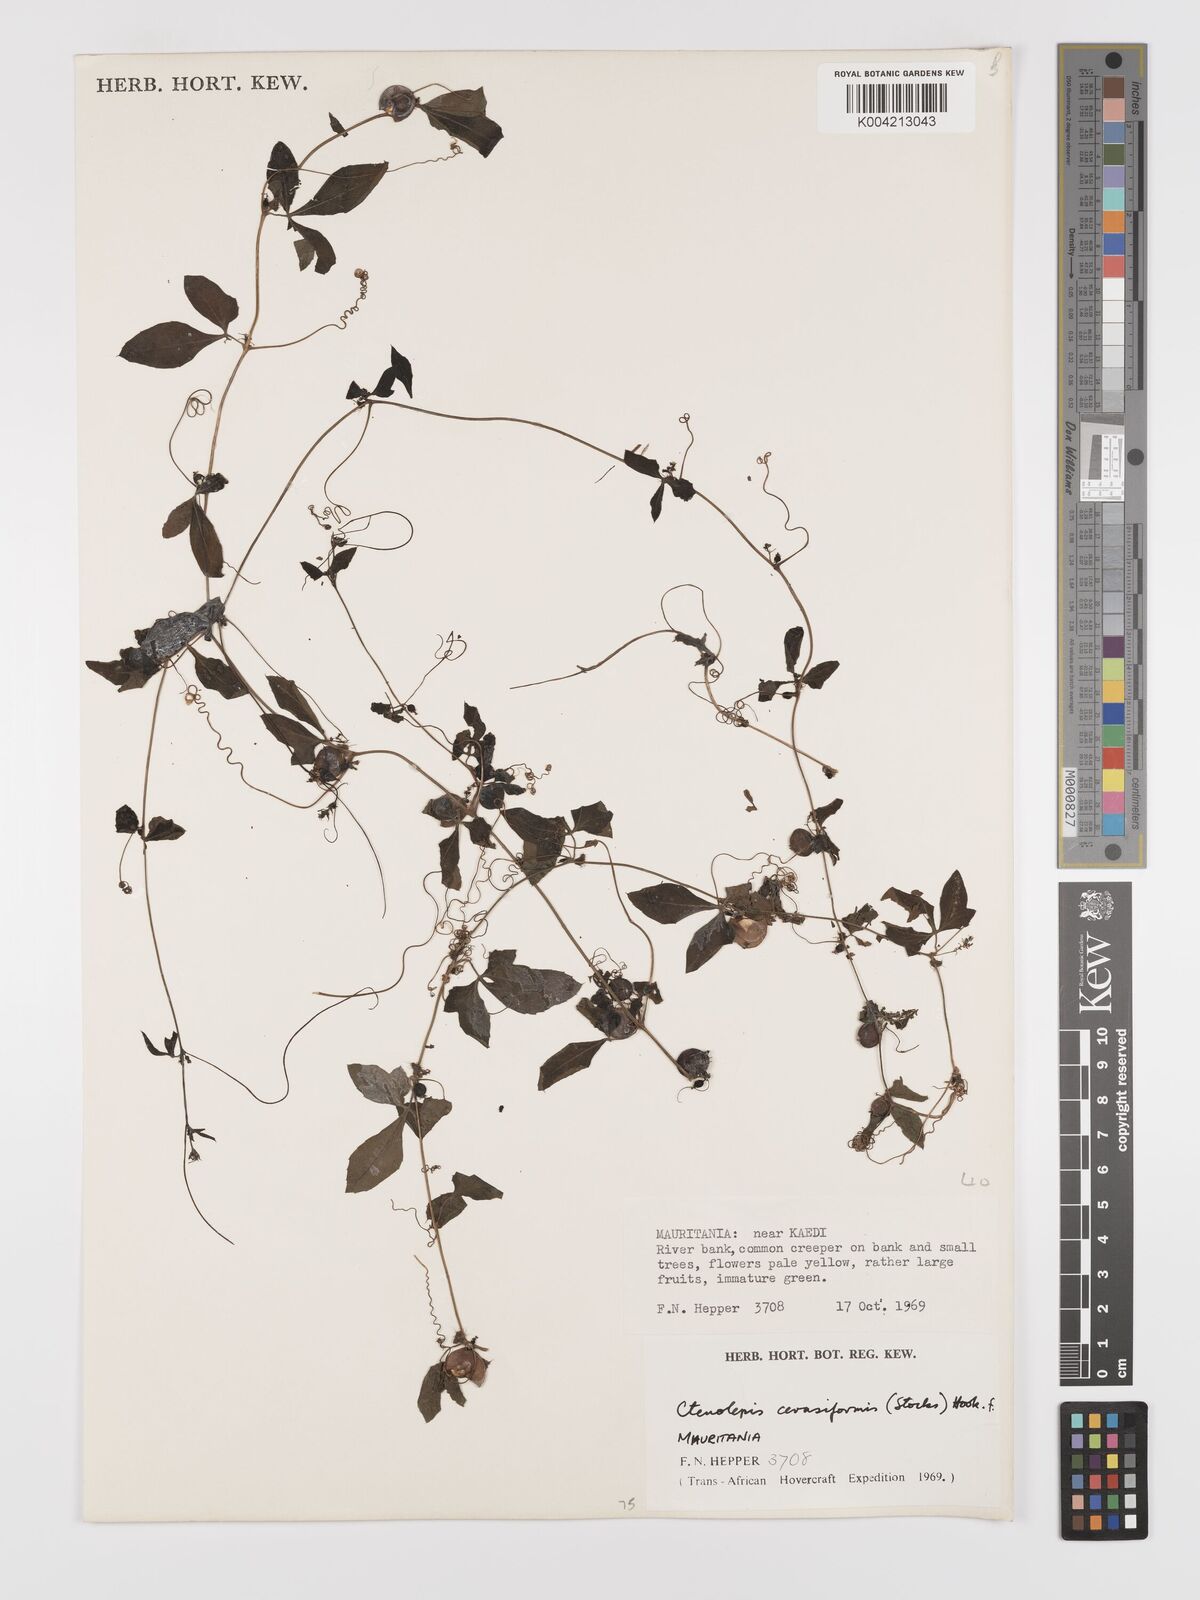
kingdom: Plantae
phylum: Tracheophyta
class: Magnoliopsida
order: Cucurbitales
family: Cucurbitaceae
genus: Blastania
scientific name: Blastania cerasiformis
